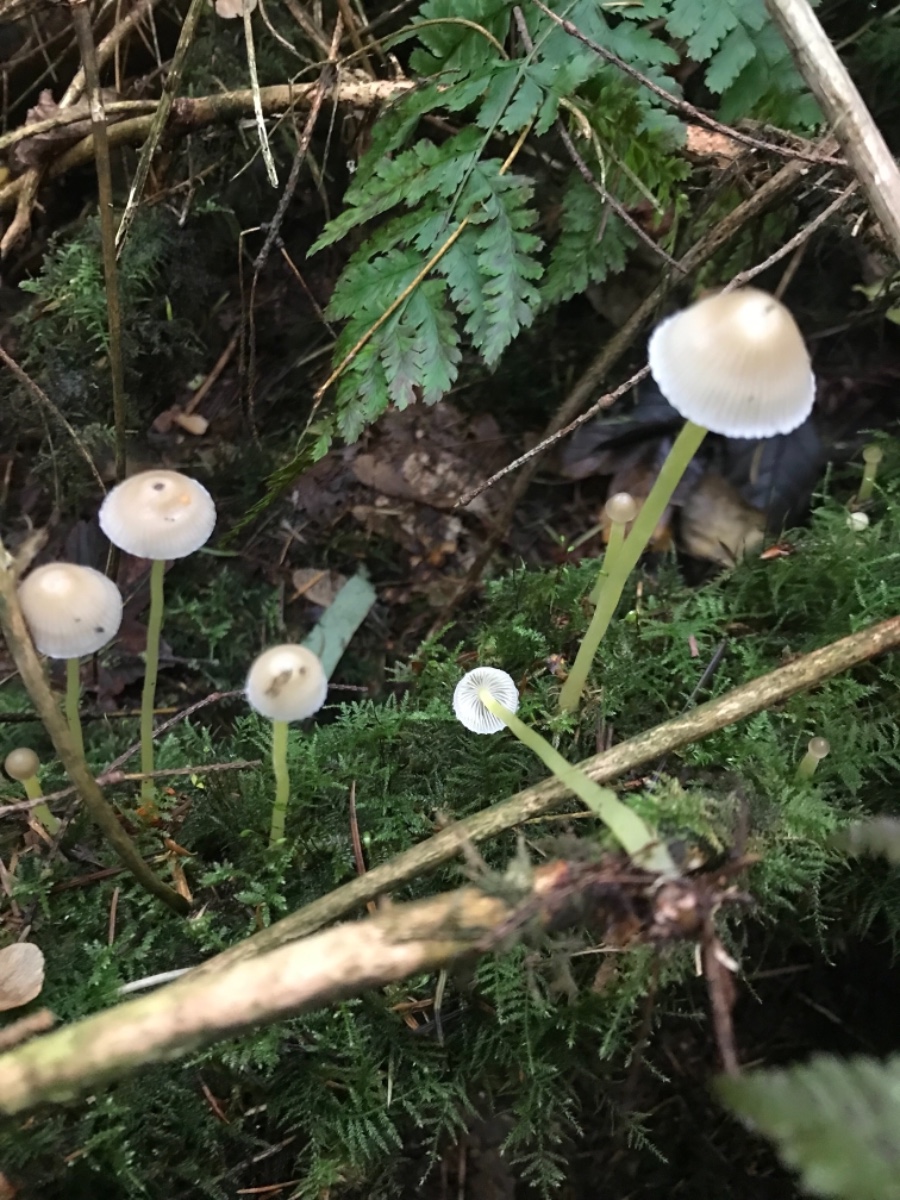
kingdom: Fungi
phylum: Basidiomycota
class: Agaricomycetes
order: Agaricales
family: Mycenaceae
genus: Mycena
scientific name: Mycena epipterygia
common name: gulstokket huesvamp
